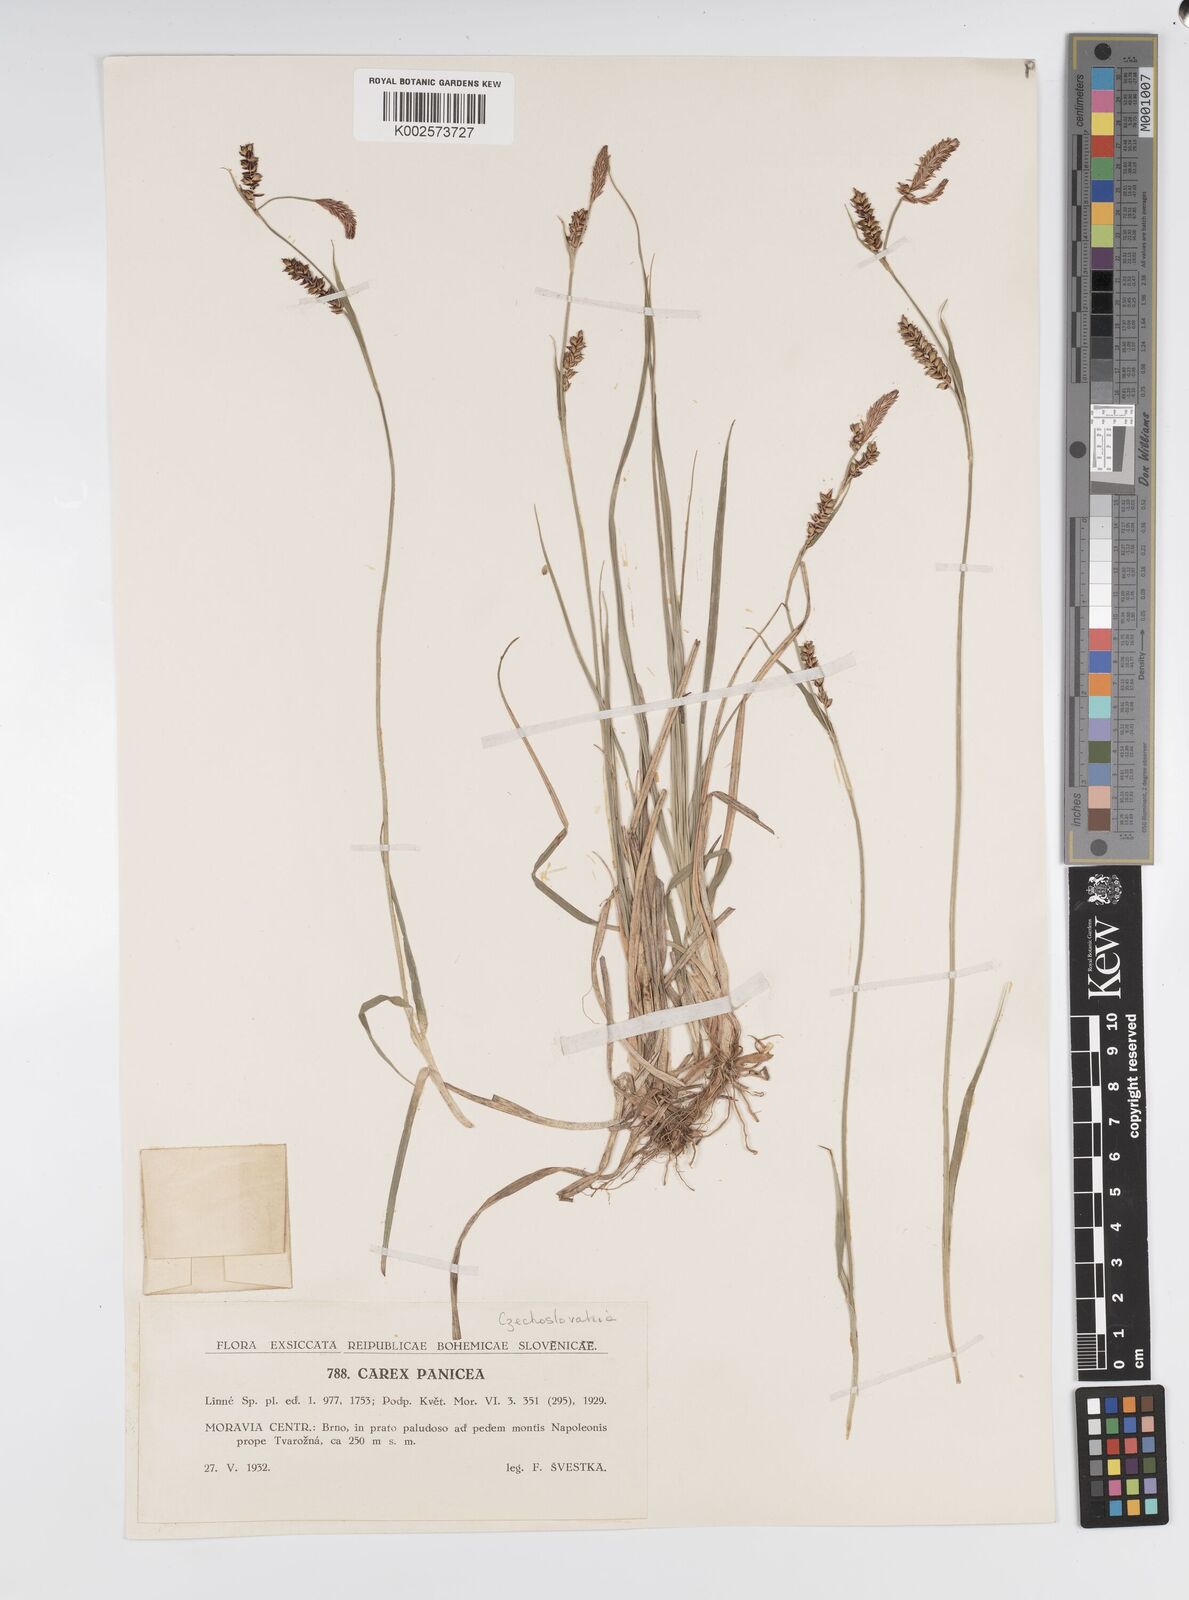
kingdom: Plantae
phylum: Tracheophyta
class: Liliopsida
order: Poales
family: Cyperaceae
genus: Carex
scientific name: Carex panicea
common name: Carnation sedge
